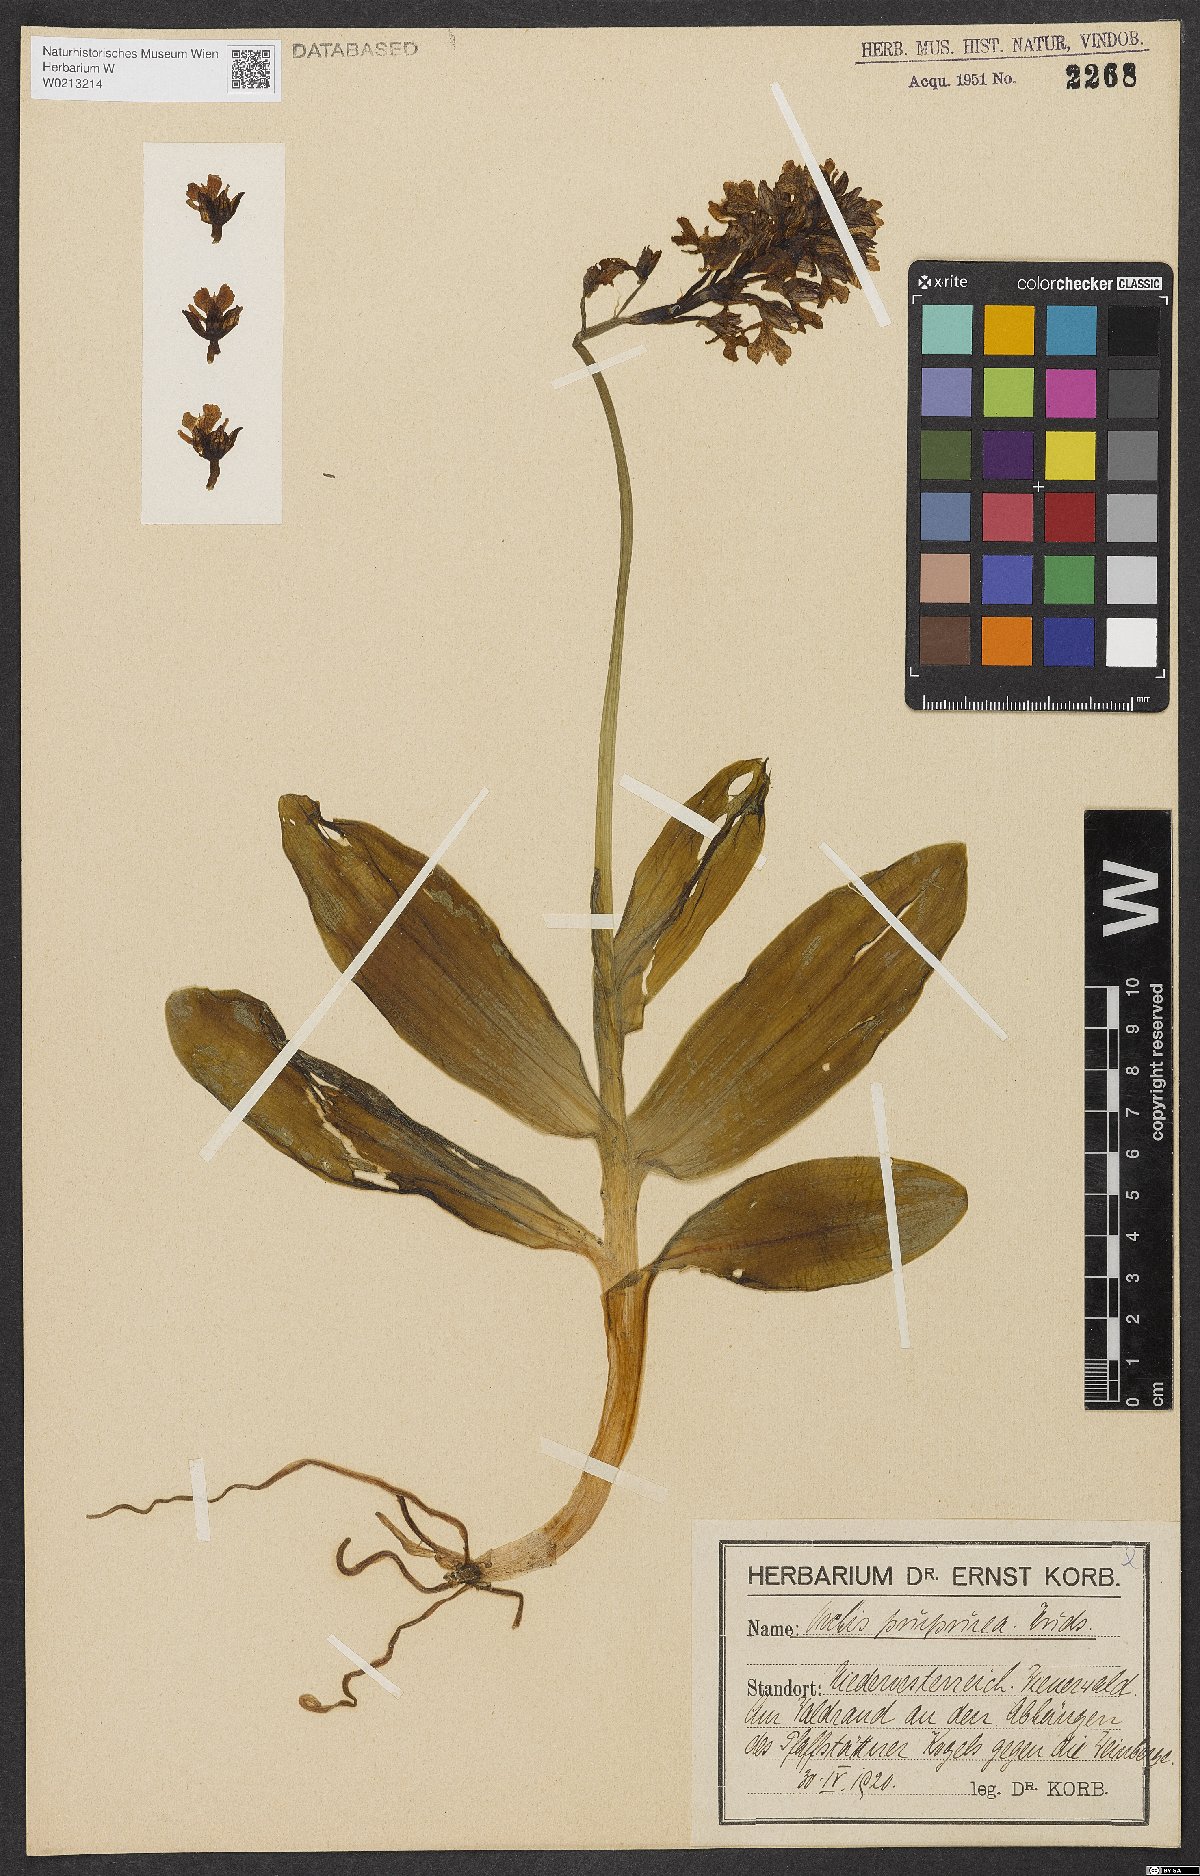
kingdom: Plantae
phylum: Tracheophyta
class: Liliopsida
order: Asparagales
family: Orchidaceae
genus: Orchis
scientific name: Orchis purpurea
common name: Lady orchid
